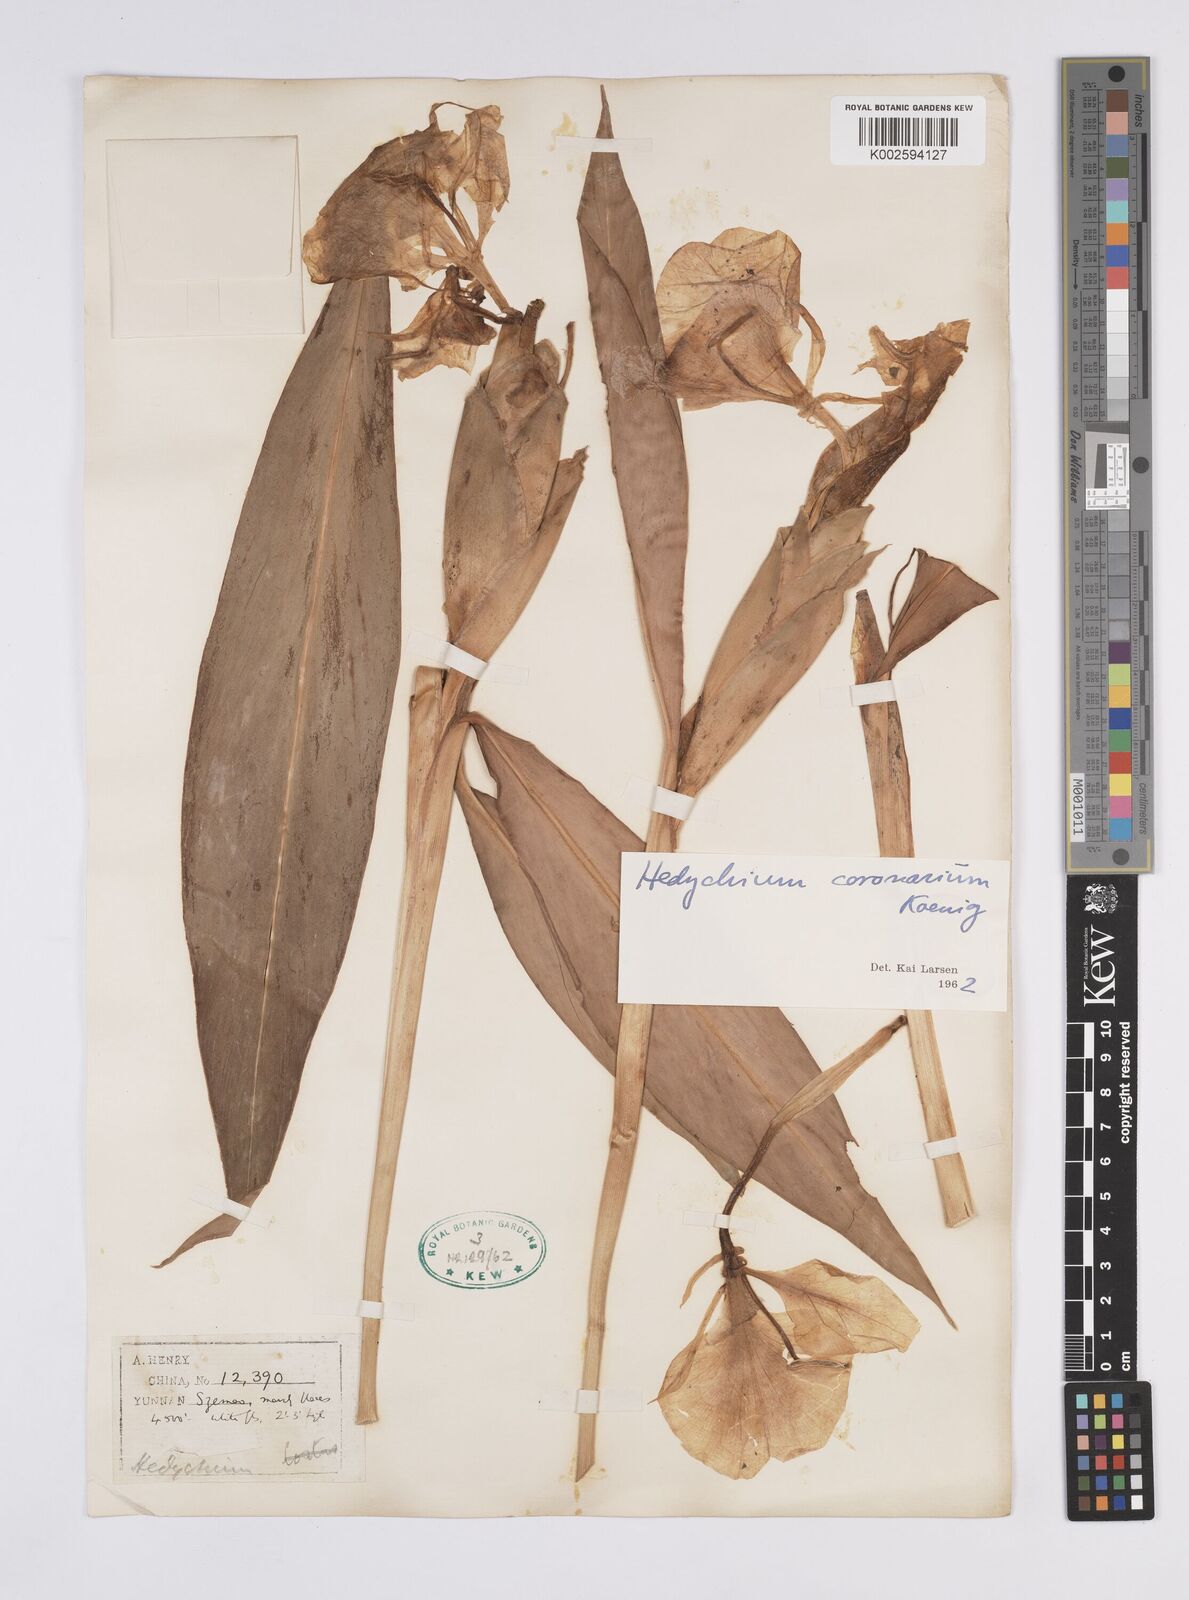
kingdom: Plantae
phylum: Tracheophyta
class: Liliopsida
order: Zingiberales
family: Zingiberaceae
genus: Hedychium
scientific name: Hedychium coronarium
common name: White garland-lily
